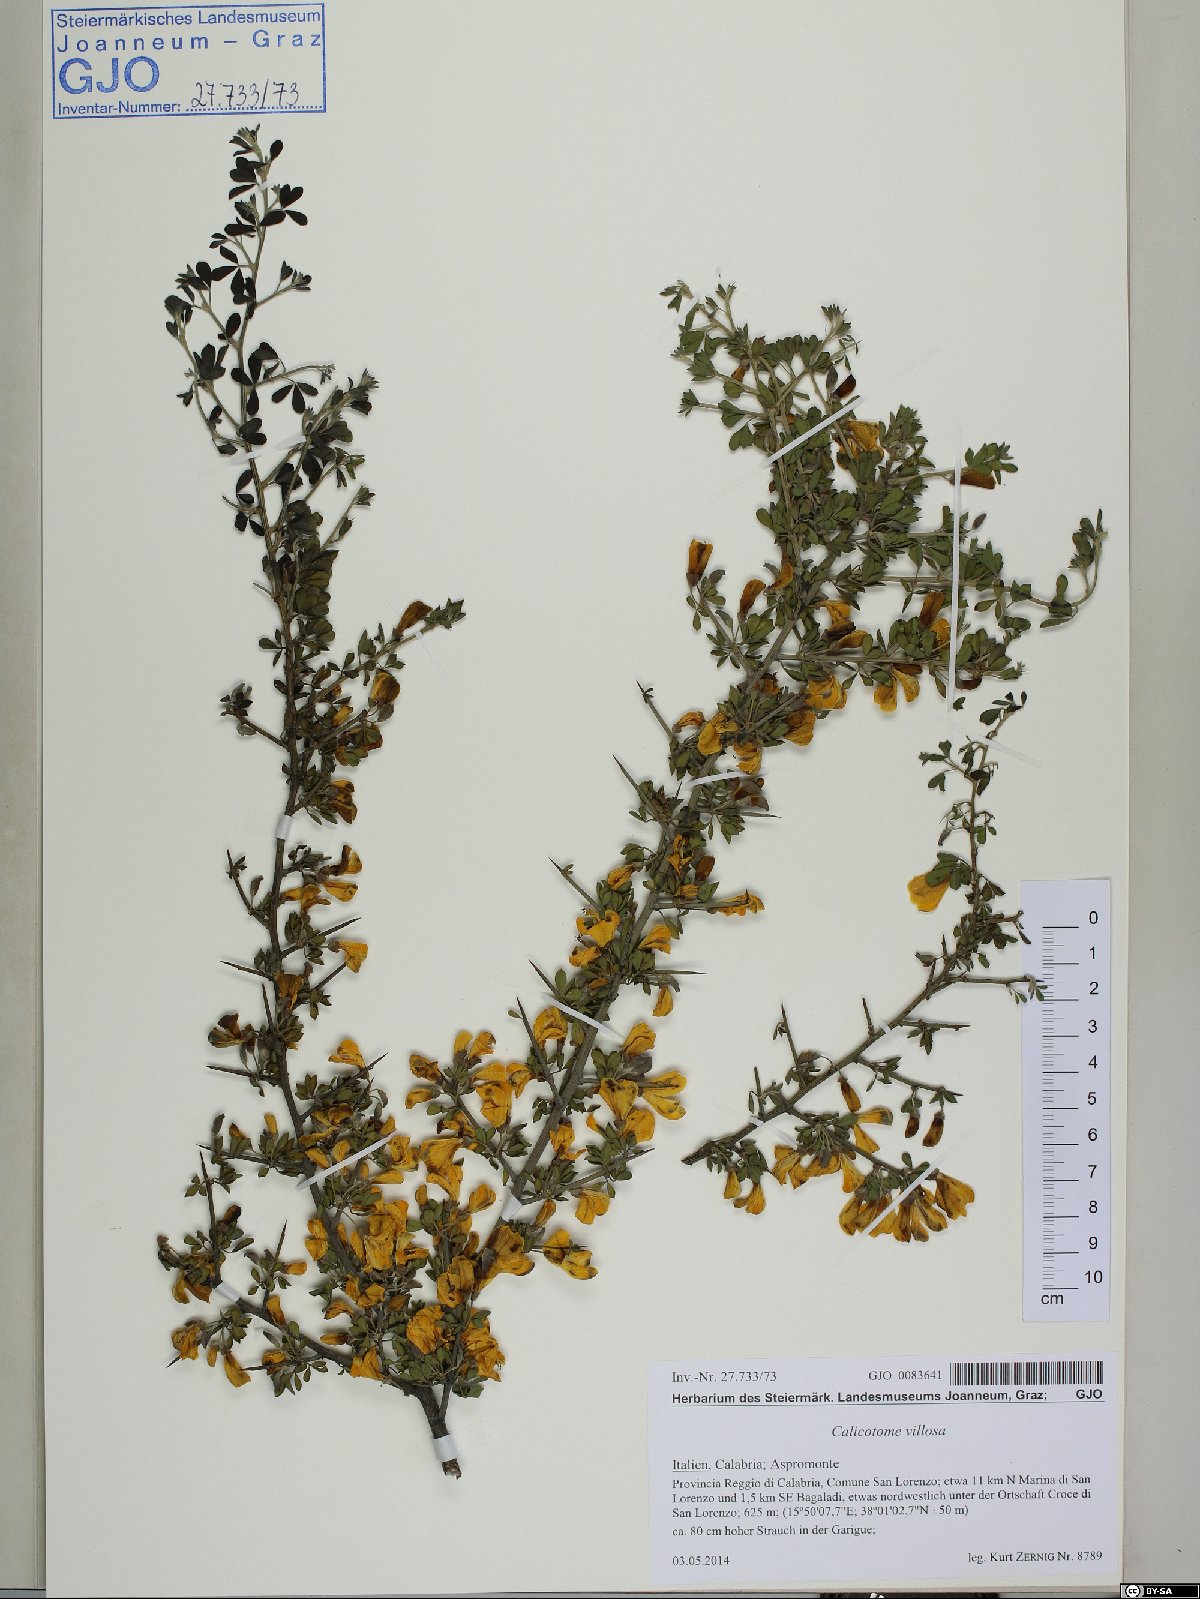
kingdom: Plantae
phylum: Tracheophyta
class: Magnoliopsida
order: Fabales
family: Fabaceae
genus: Calicotome
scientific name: Calicotome villosa
